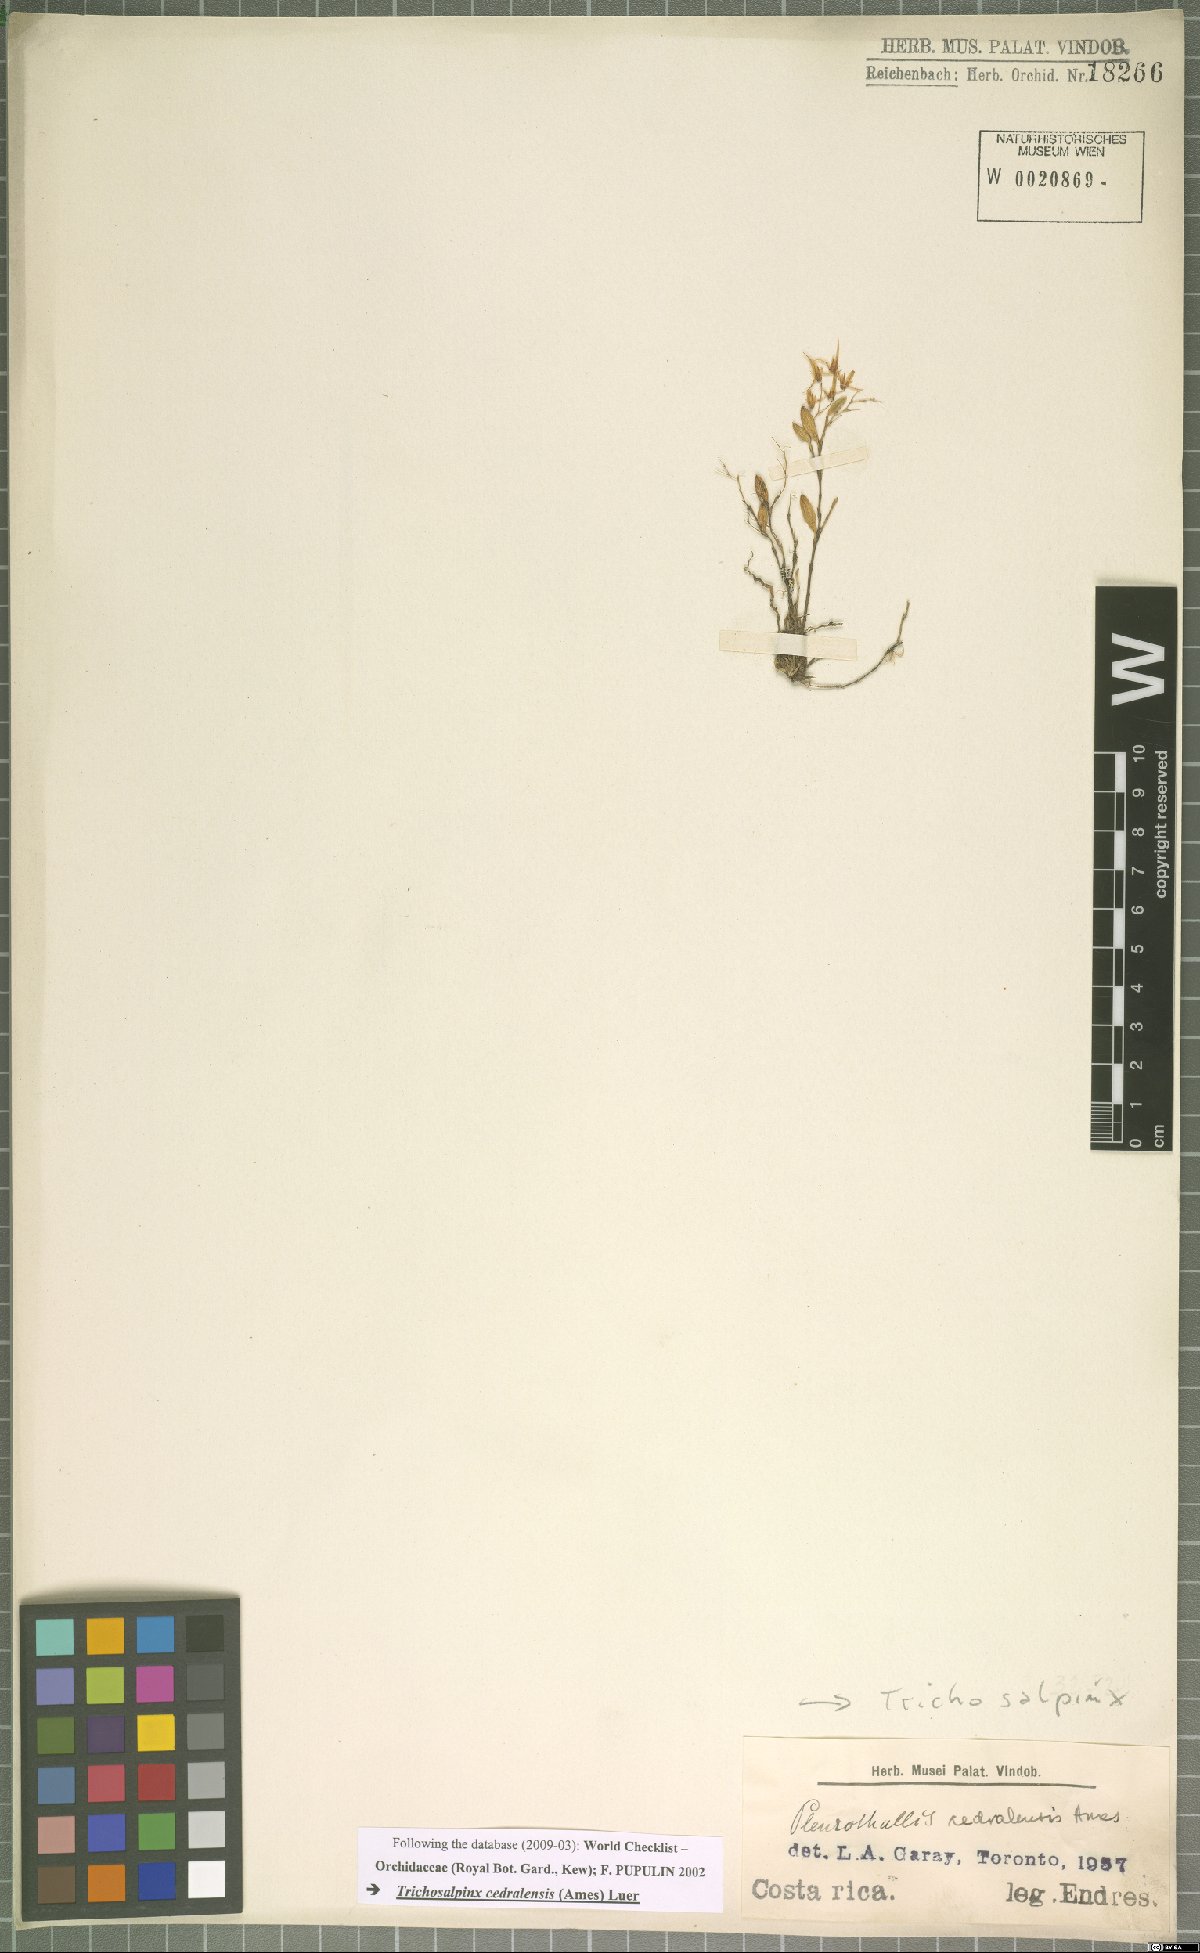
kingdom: Plantae
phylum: Tracheophyta
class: Liliopsida
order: Asparagales
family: Orchidaceae
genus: Trichosalpinx
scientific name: Trichosalpinx cedralensis
